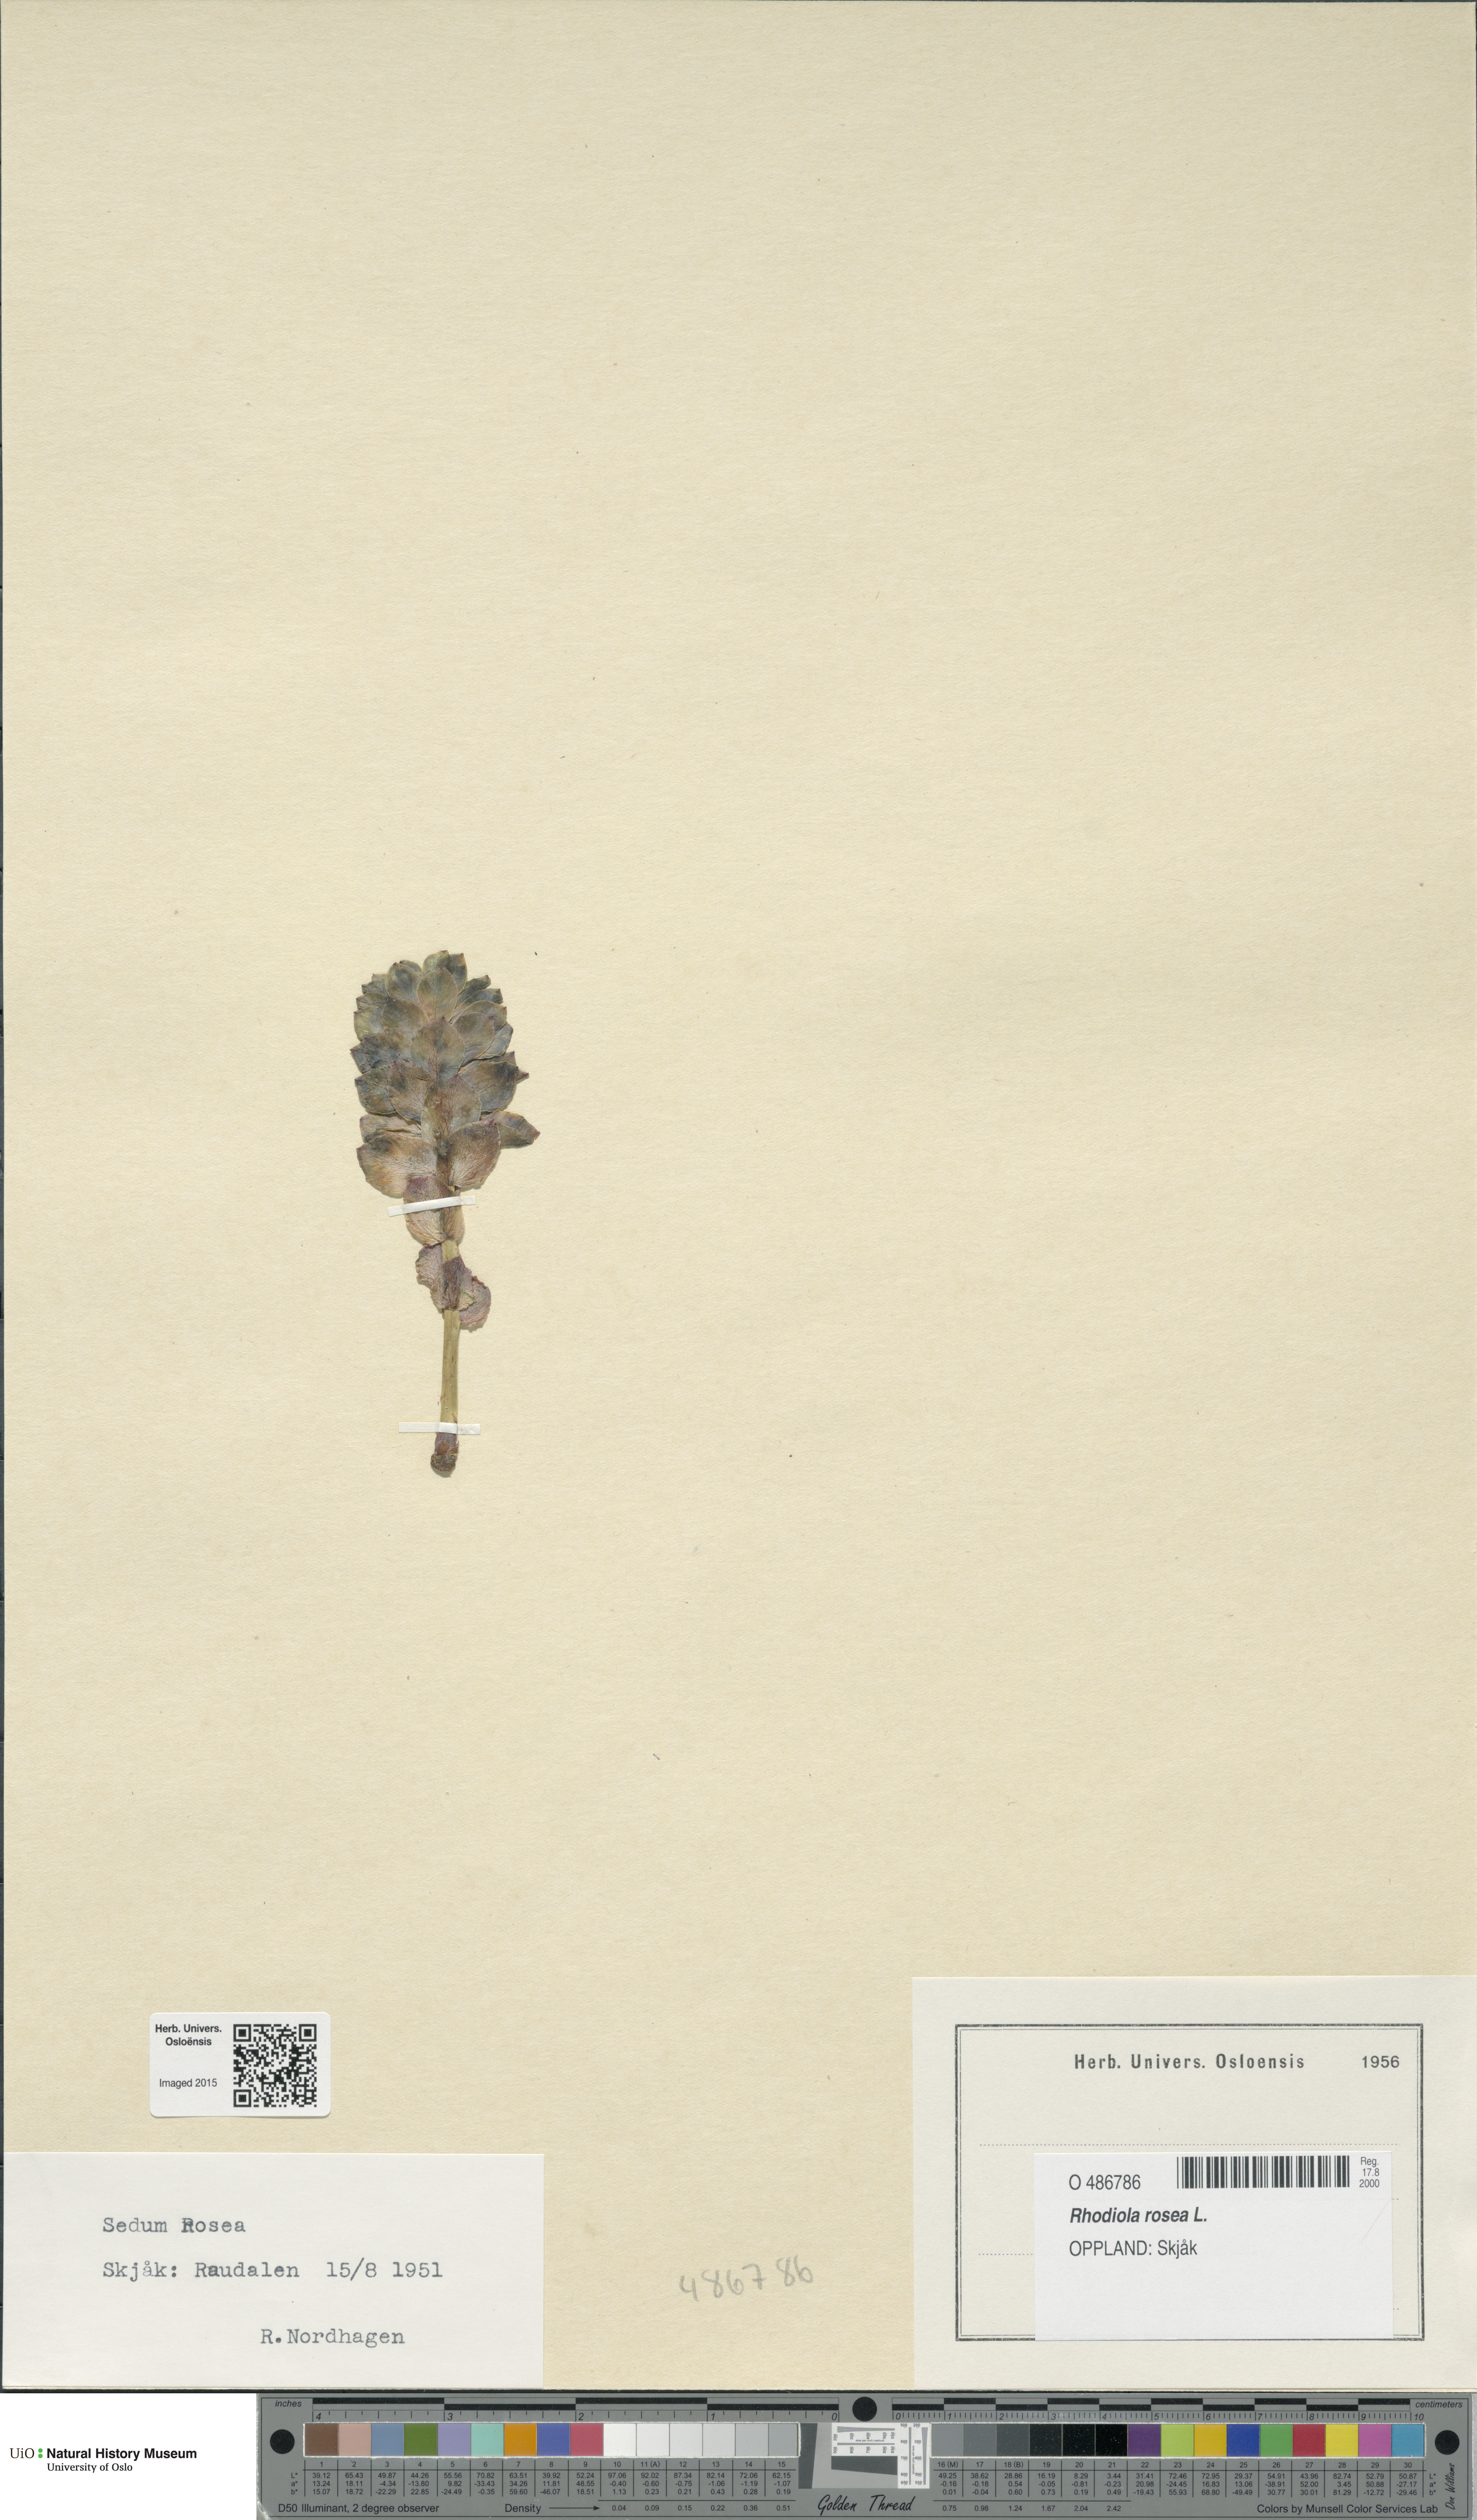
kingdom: Plantae
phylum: Tracheophyta
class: Magnoliopsida
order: Saxifragales
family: Crassulaceae
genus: Rhodiola
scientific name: Rhodiola rosea
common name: Roseroot
